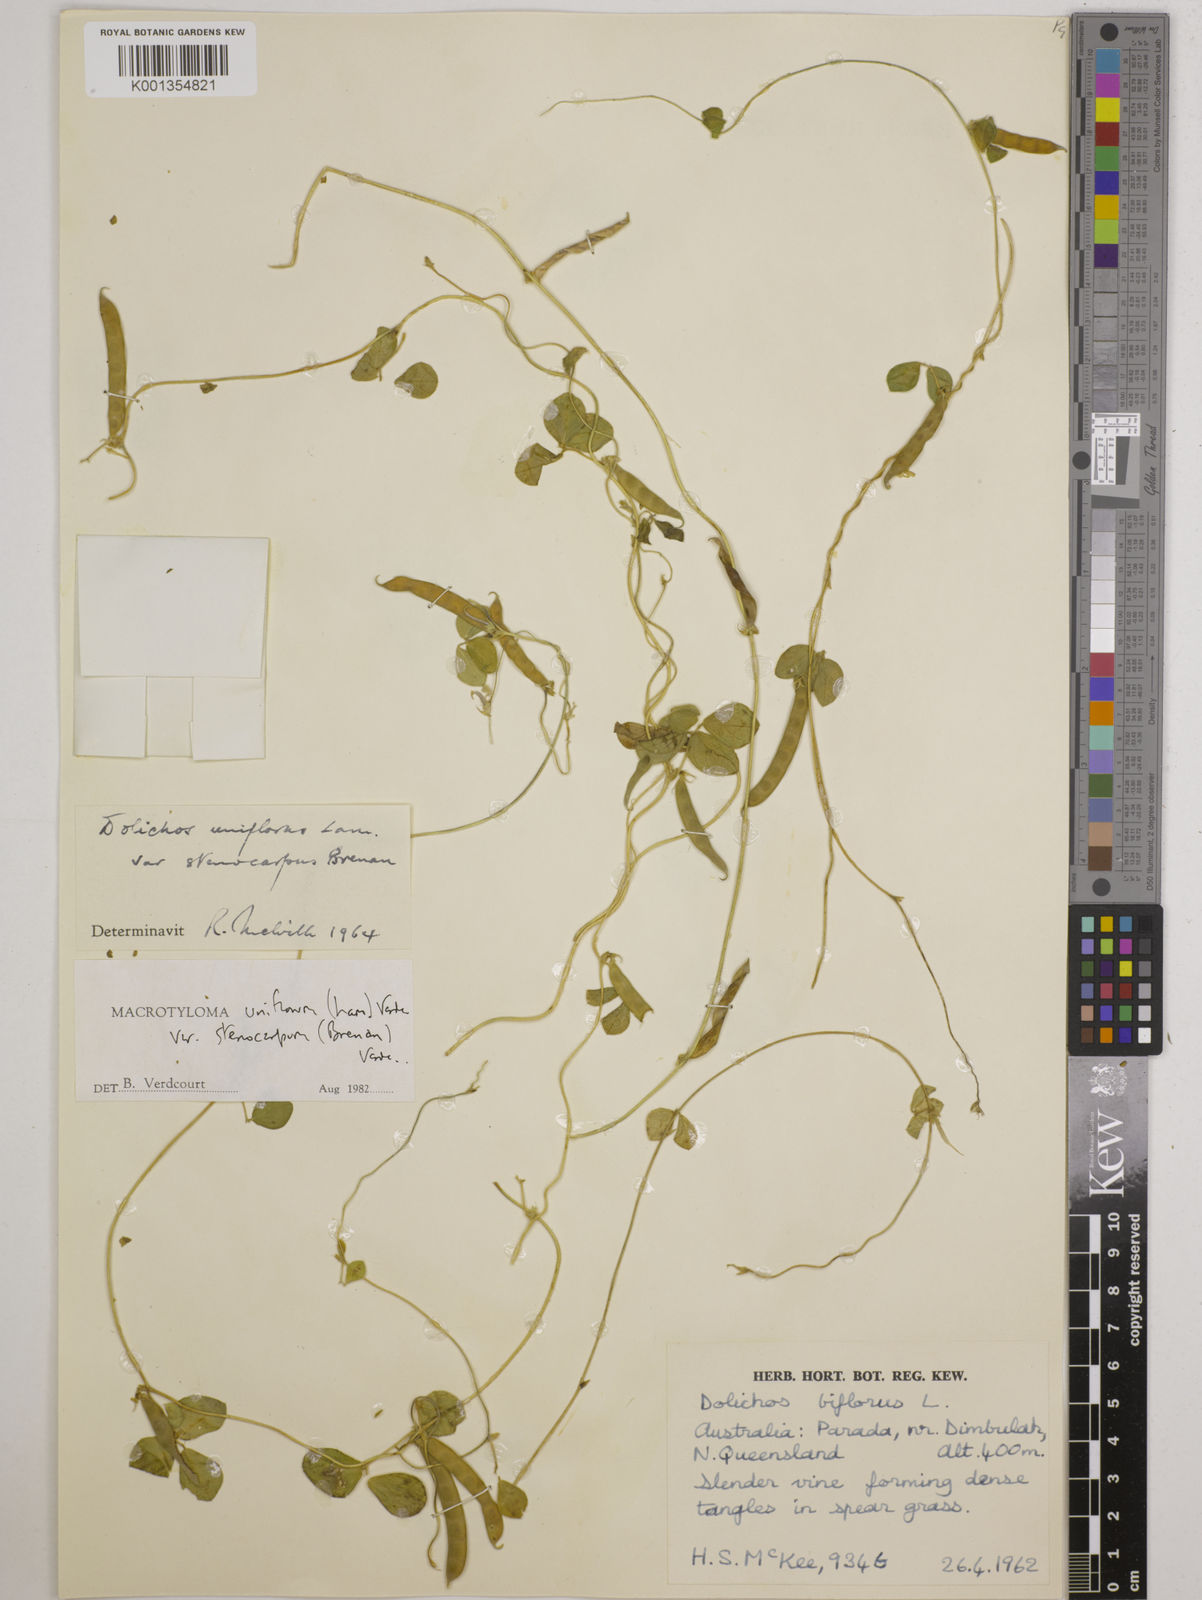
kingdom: Plantae
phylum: Tracheophyta
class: Magnoliopsida
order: Fabales
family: Fabaceae
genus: Macrotyloma
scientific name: Macrotyloma uniflorum
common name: Horse gram
